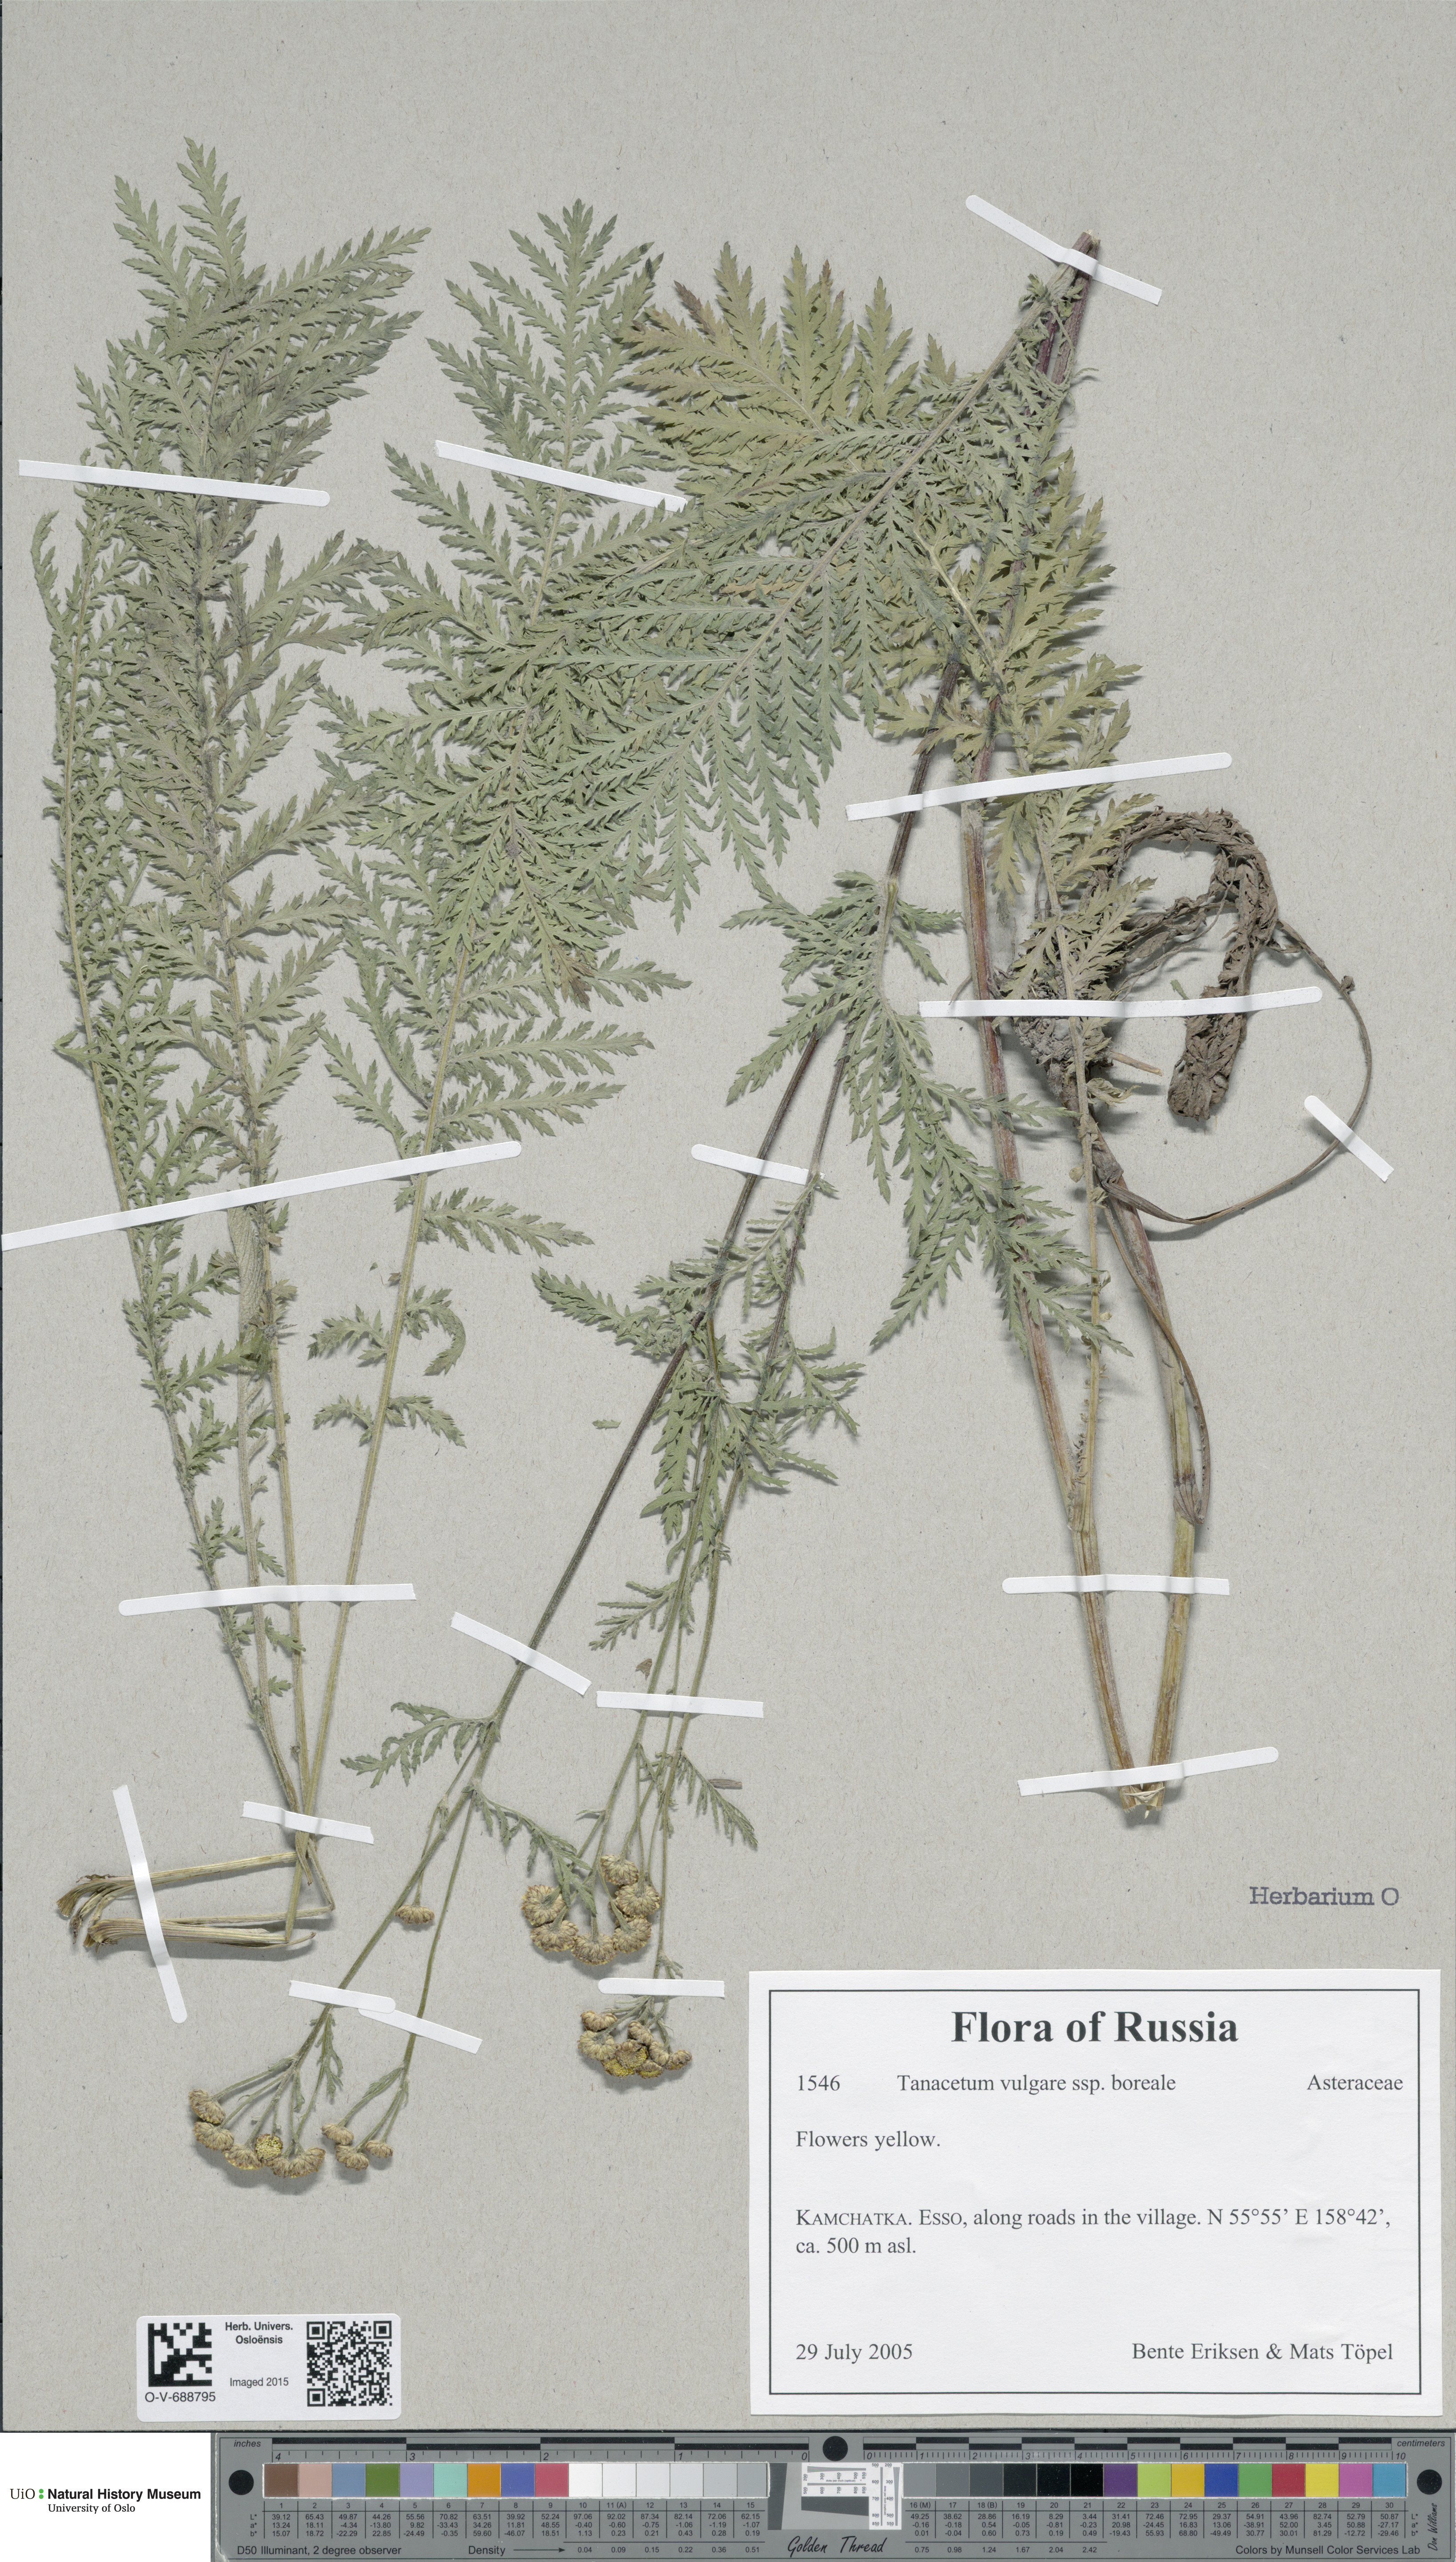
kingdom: Plantae
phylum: Tracheophyta
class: Magnoliopsida
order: Asterales
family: Asteraceae
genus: Tanacetum
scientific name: Tanacetum vulgare
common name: Common tansy
